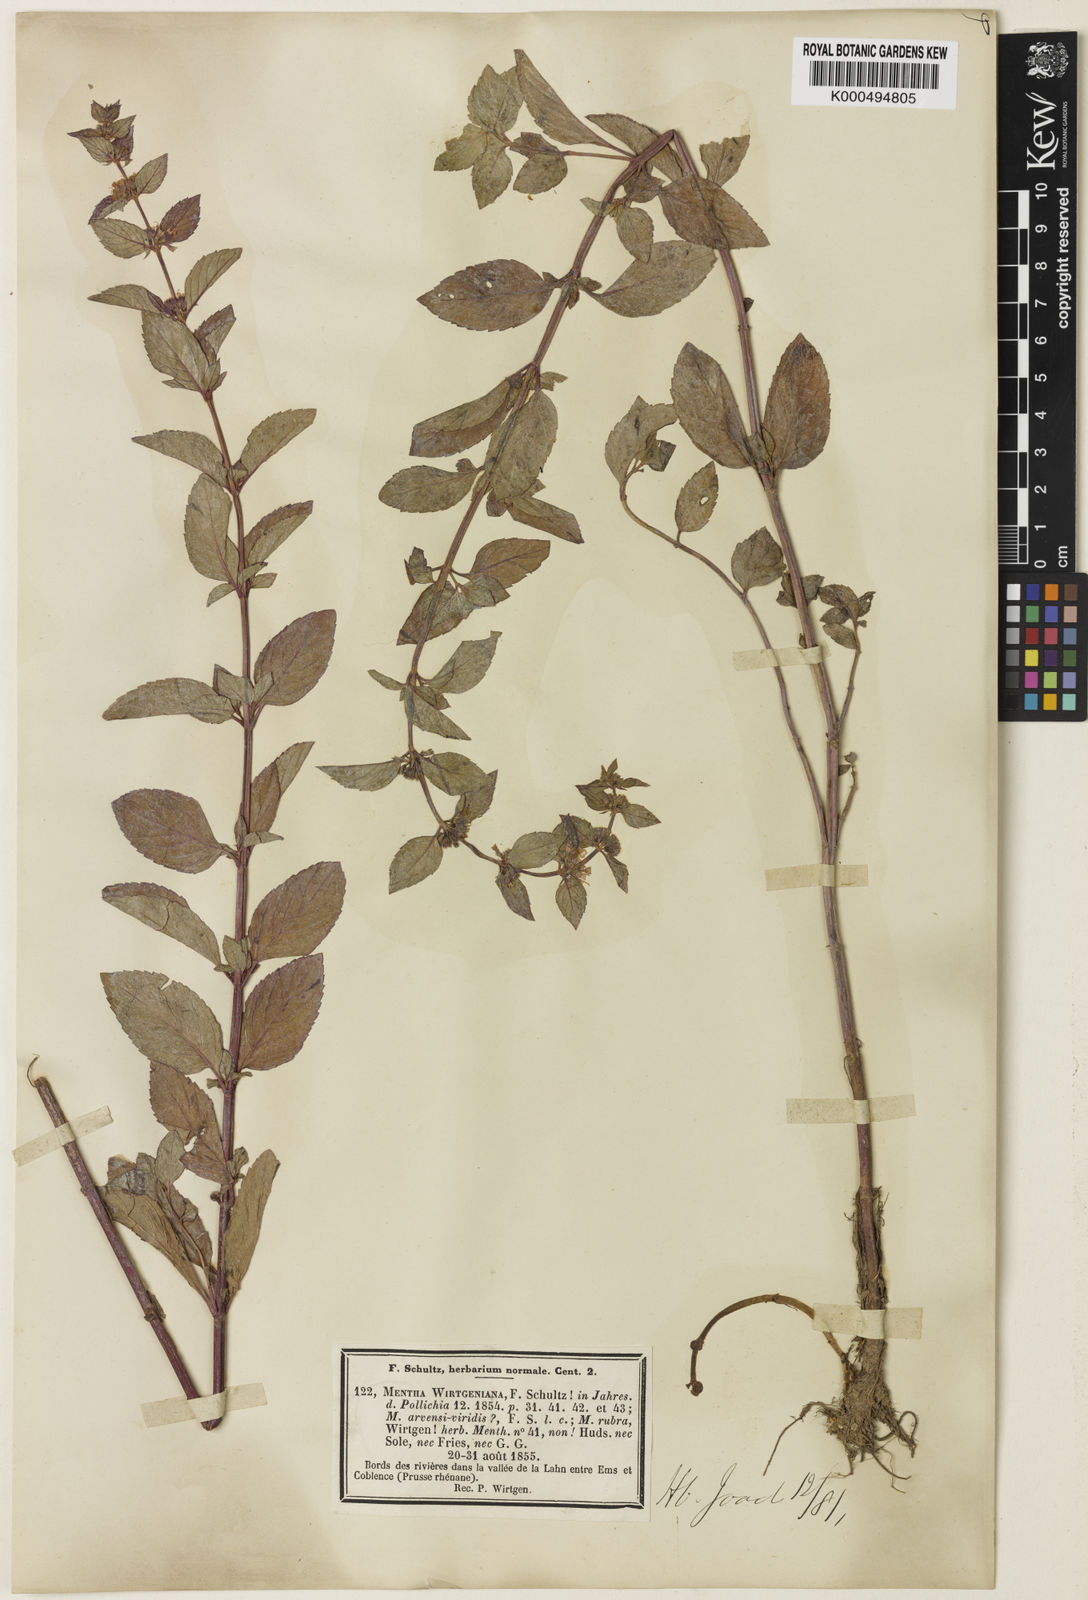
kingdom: Plantae
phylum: Tracheophyta
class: Magnoliopsida
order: Lamiales
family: Lamiaceae
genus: Mentha
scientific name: Mentha arvensis
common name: Corn mint
